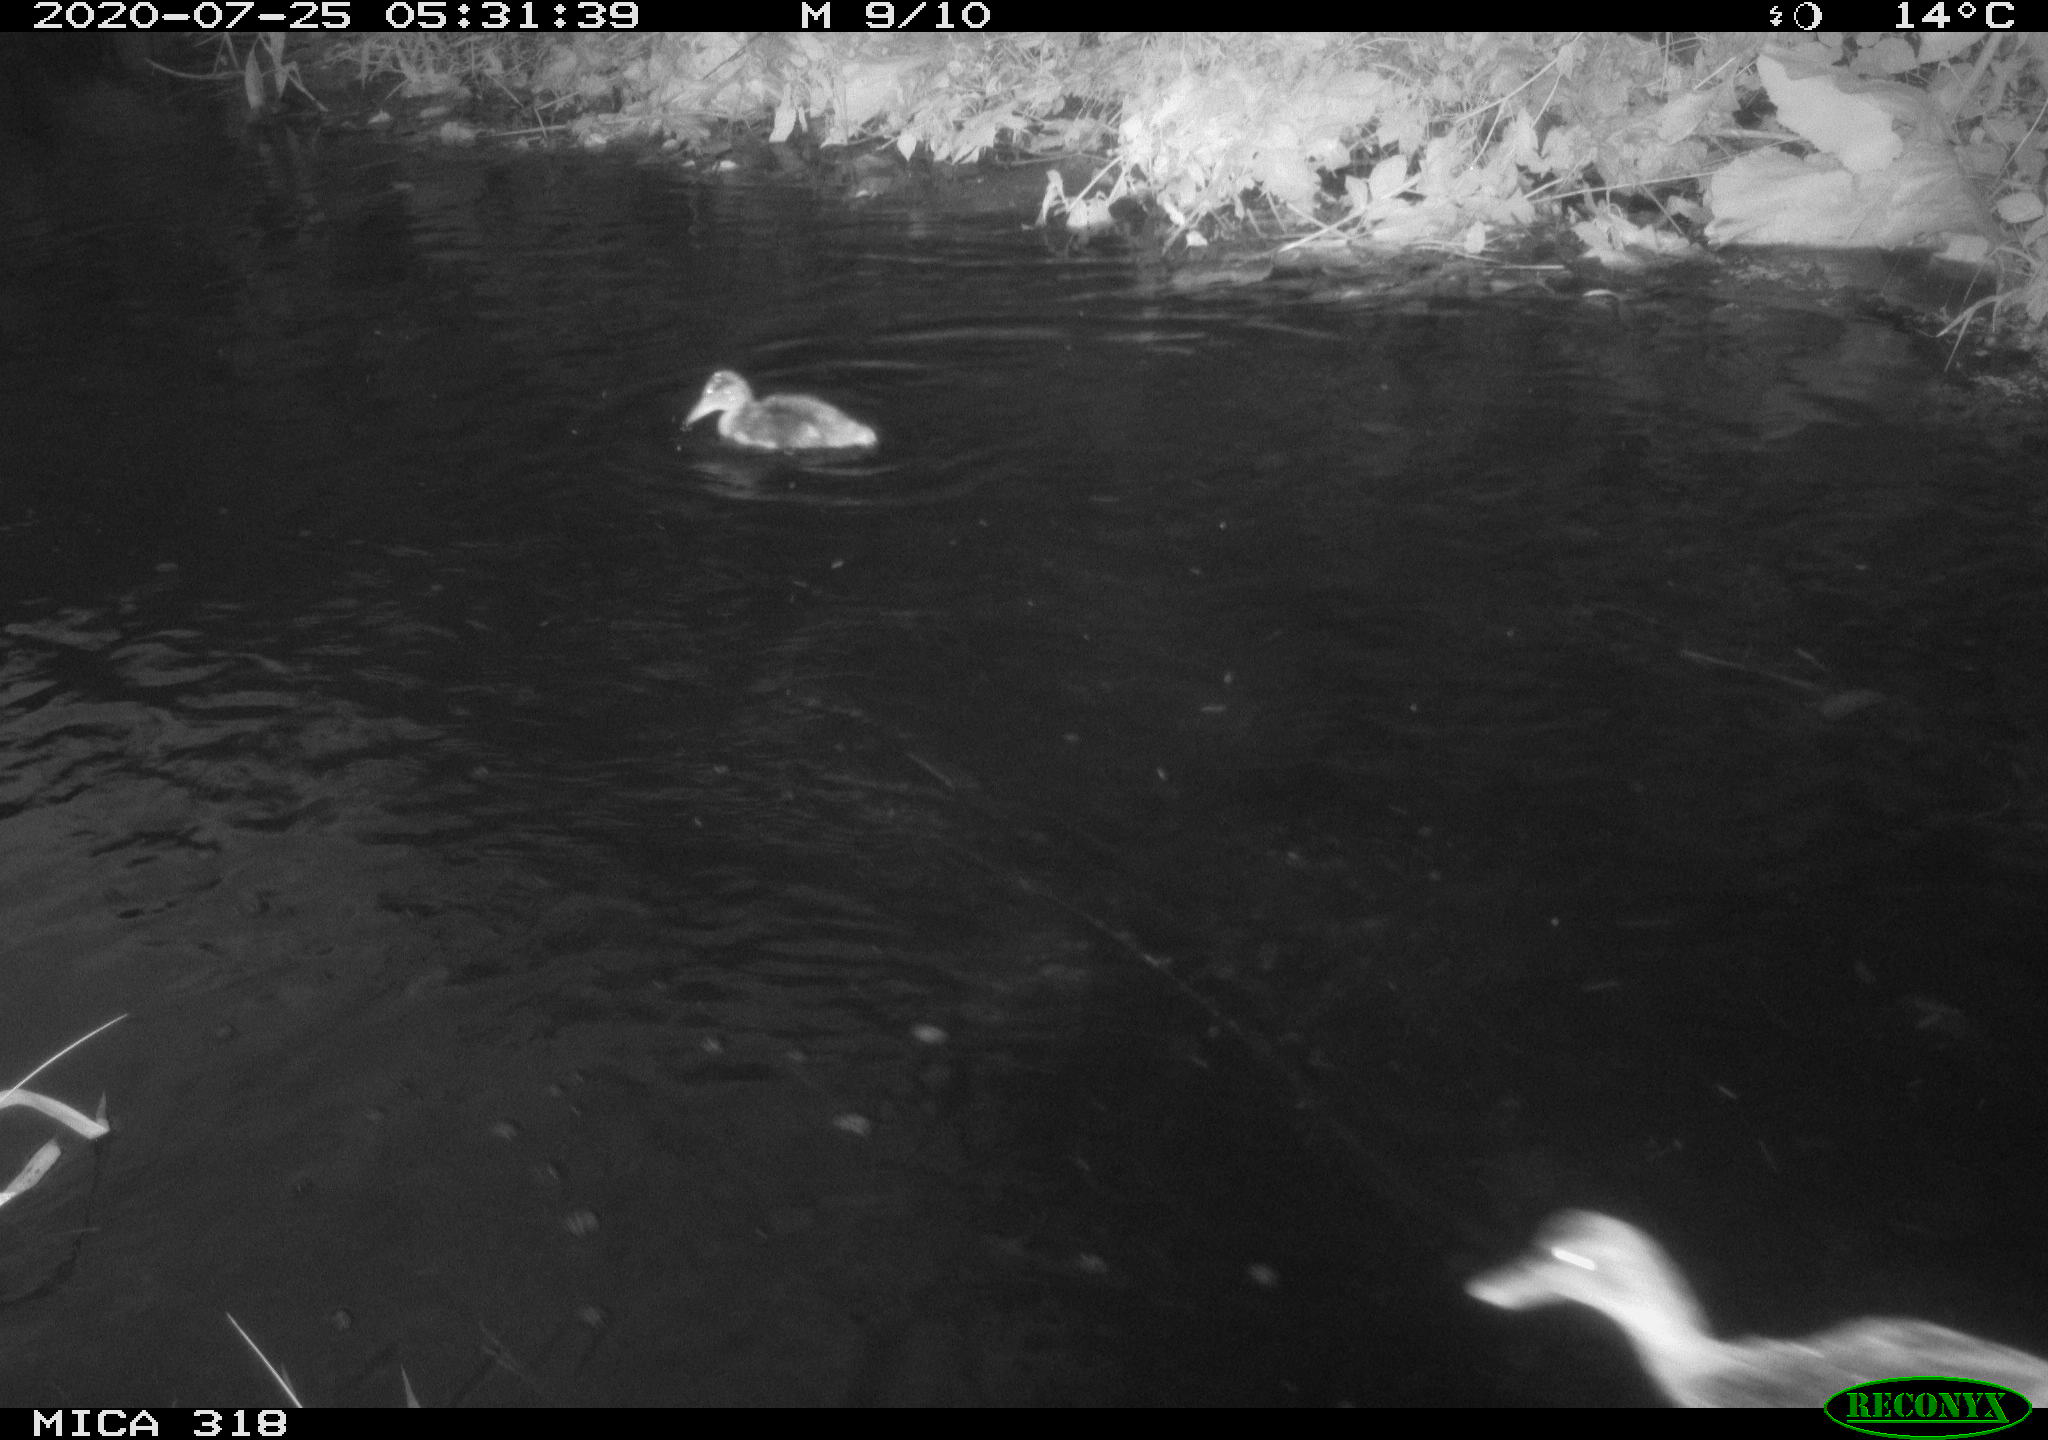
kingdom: Animalia
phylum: Chordata
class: Aves
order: Anseriformes
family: Anatidae
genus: Anas
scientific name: Anas platyrhynchos
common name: Mallard
